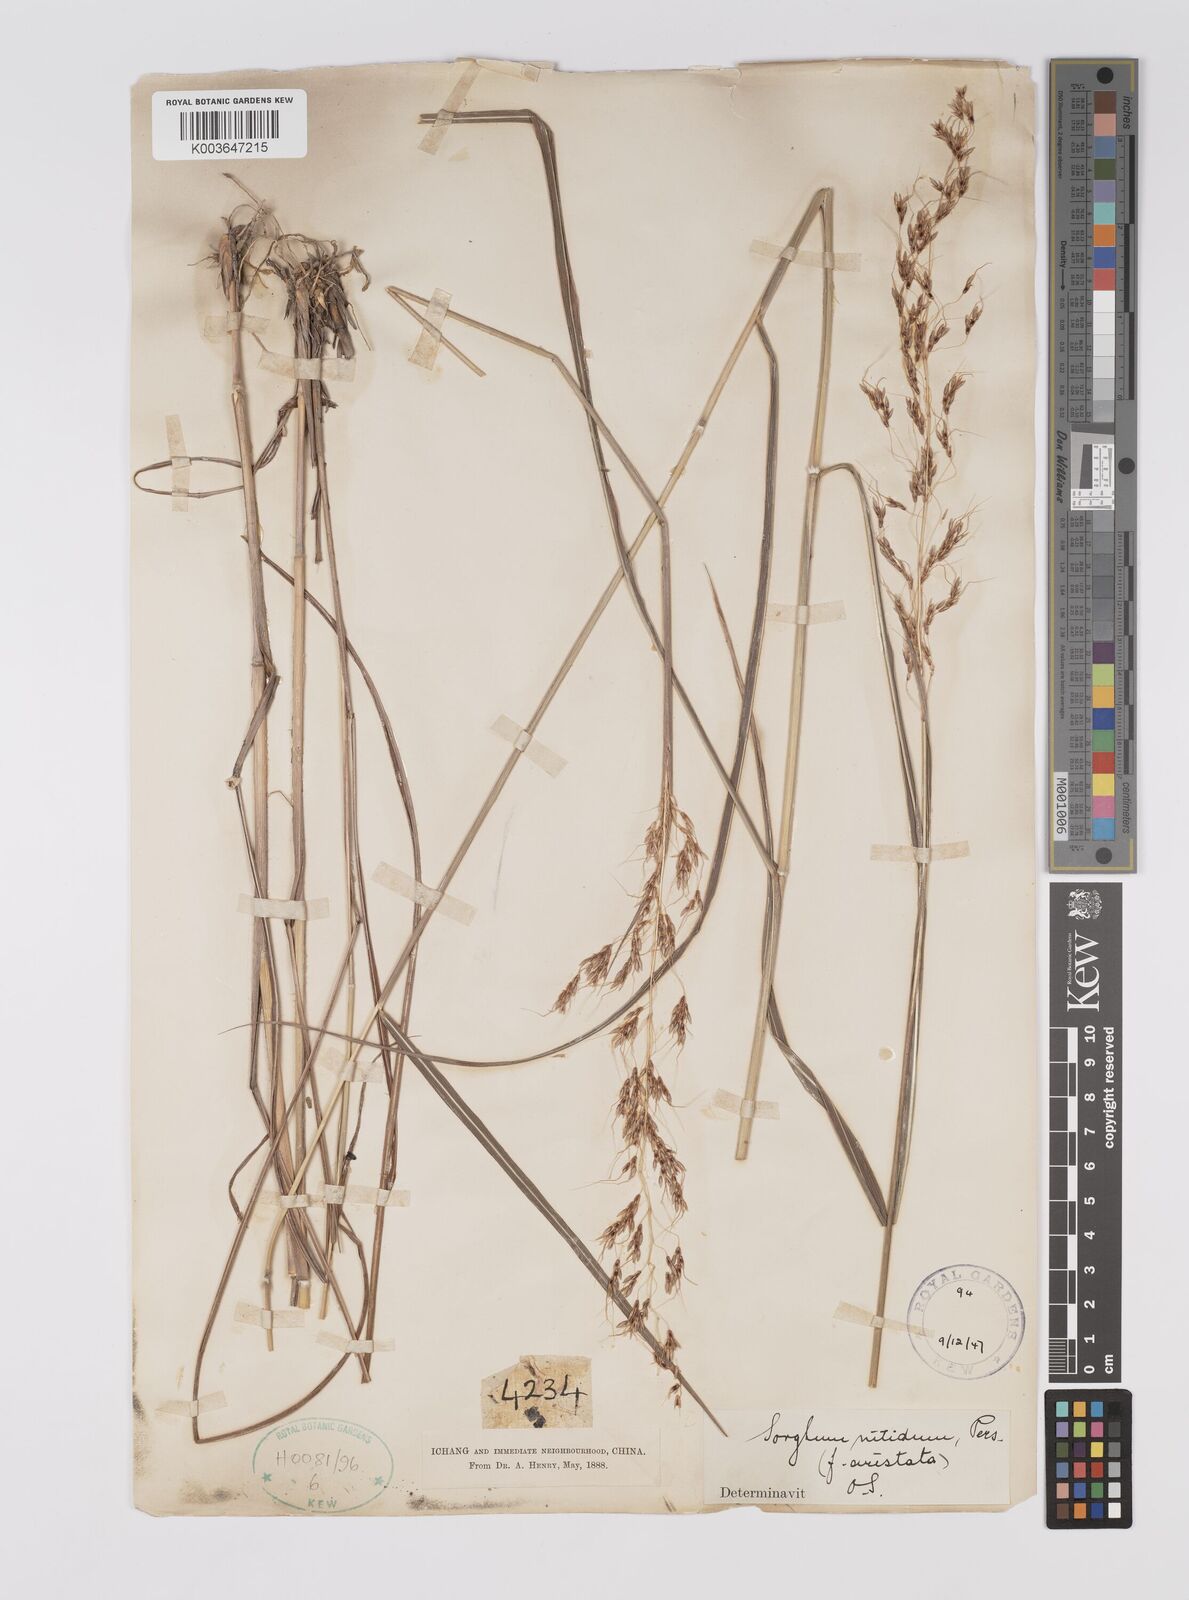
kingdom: Plantae
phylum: Tracheophyta
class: Liliopsida
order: Poales
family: Poaceae
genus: Sorghum
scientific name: Sorghum nitidum
